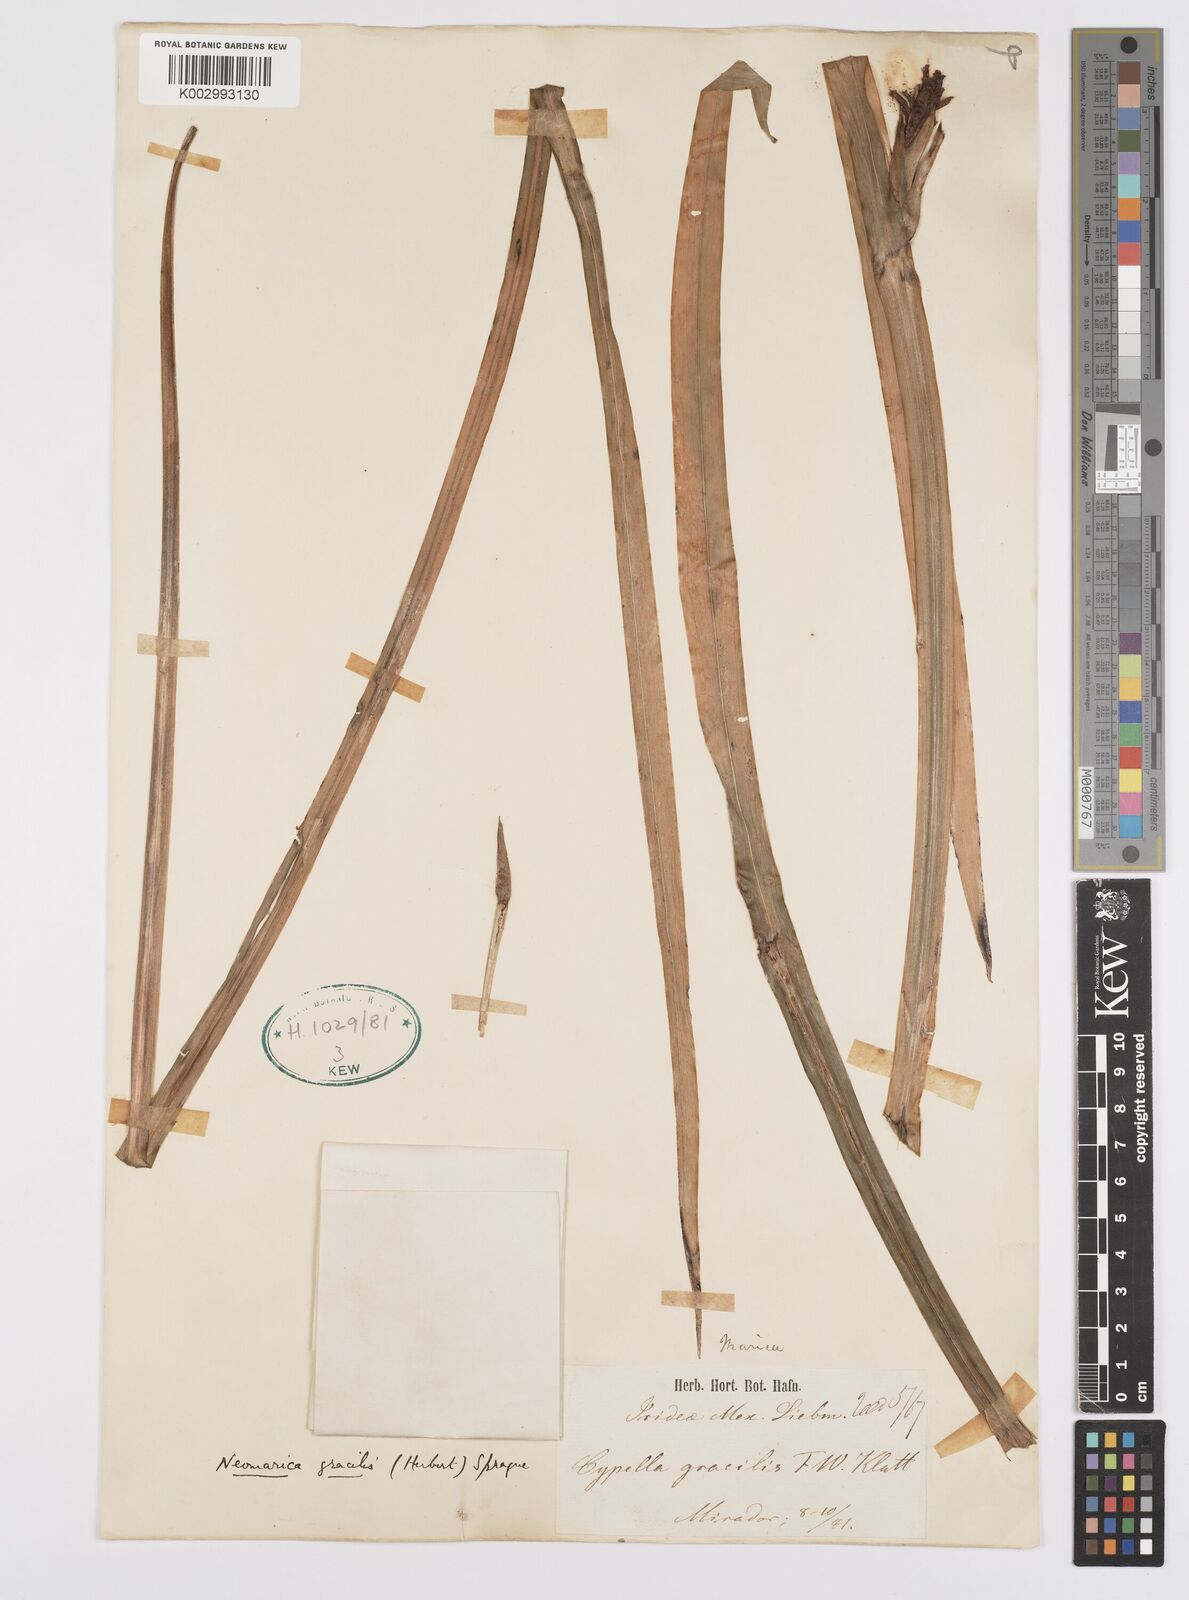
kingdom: Plantae
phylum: Tracheophyta
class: Liliopsida
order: Asparagales
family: Iridaceae
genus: Trimezia
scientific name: Trimezia gracilis
